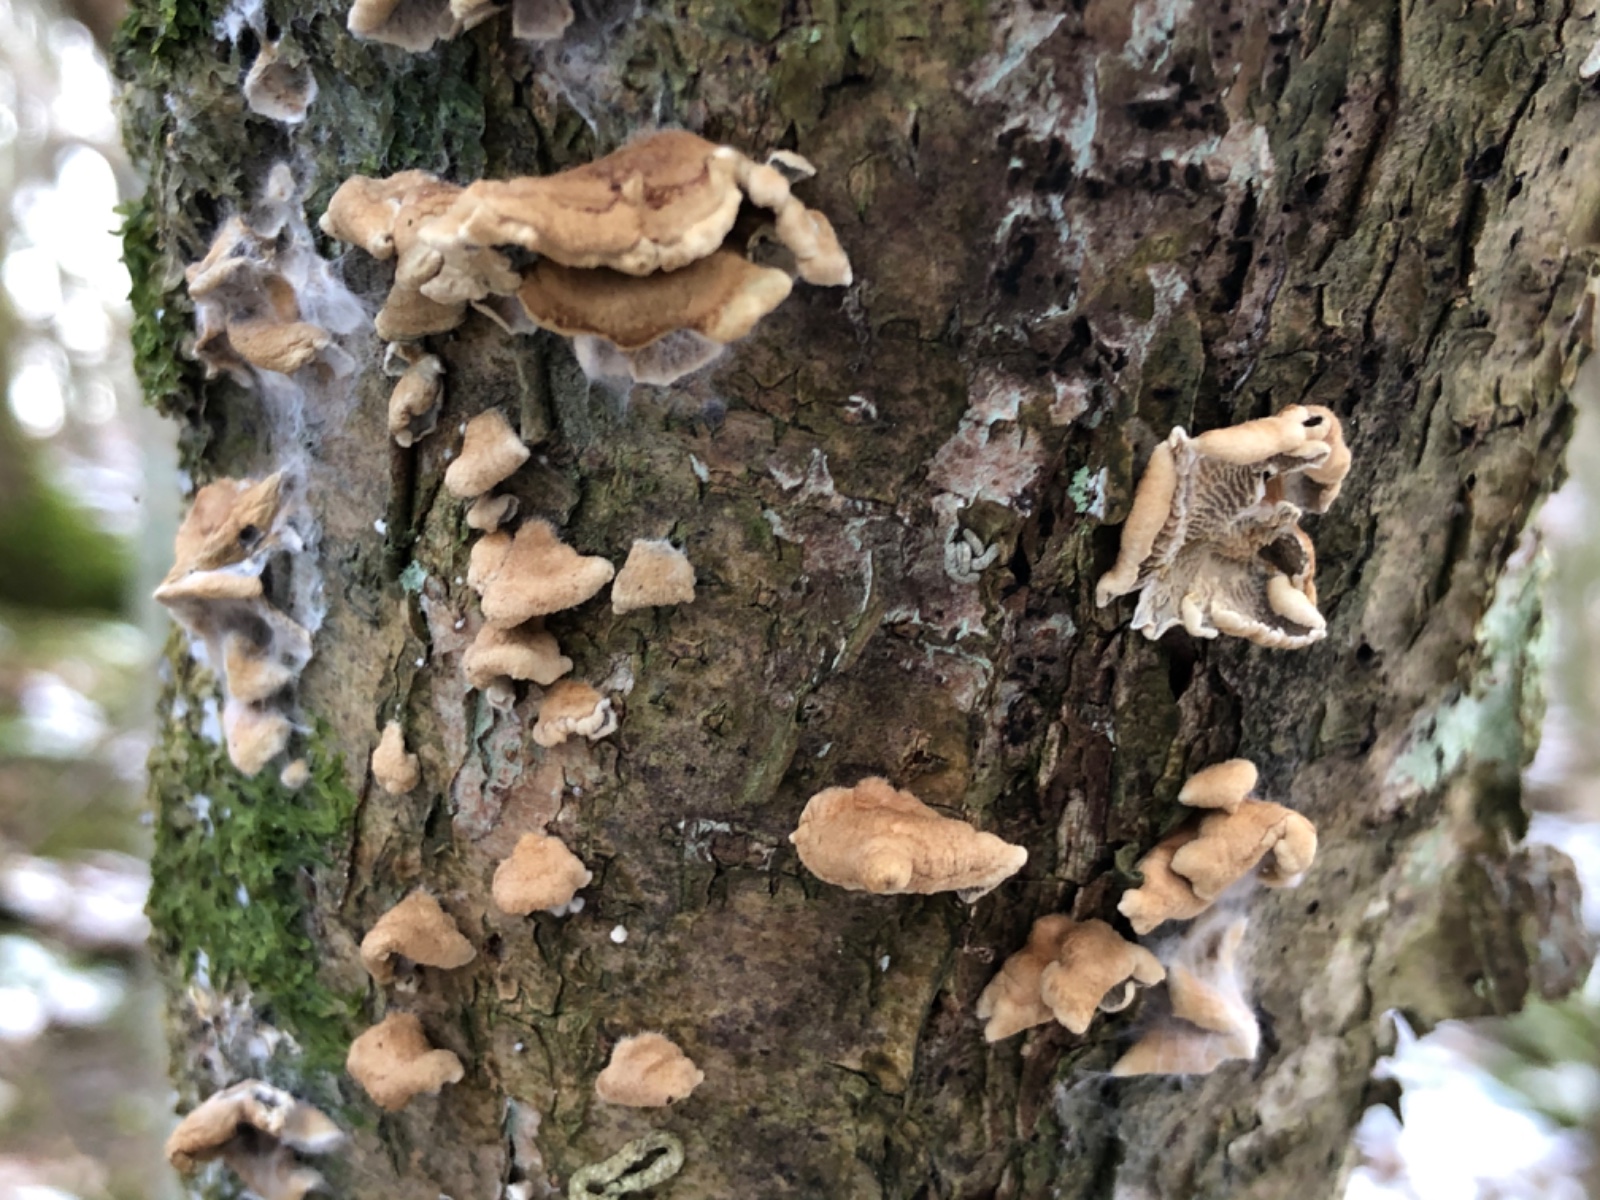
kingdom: Fungi
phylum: Basidiomycota
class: Agaricomycetes
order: Amylocorticiales
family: Amylocorticiaceae
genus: Plicaturopsis
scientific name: Plicaturopsis crispa
